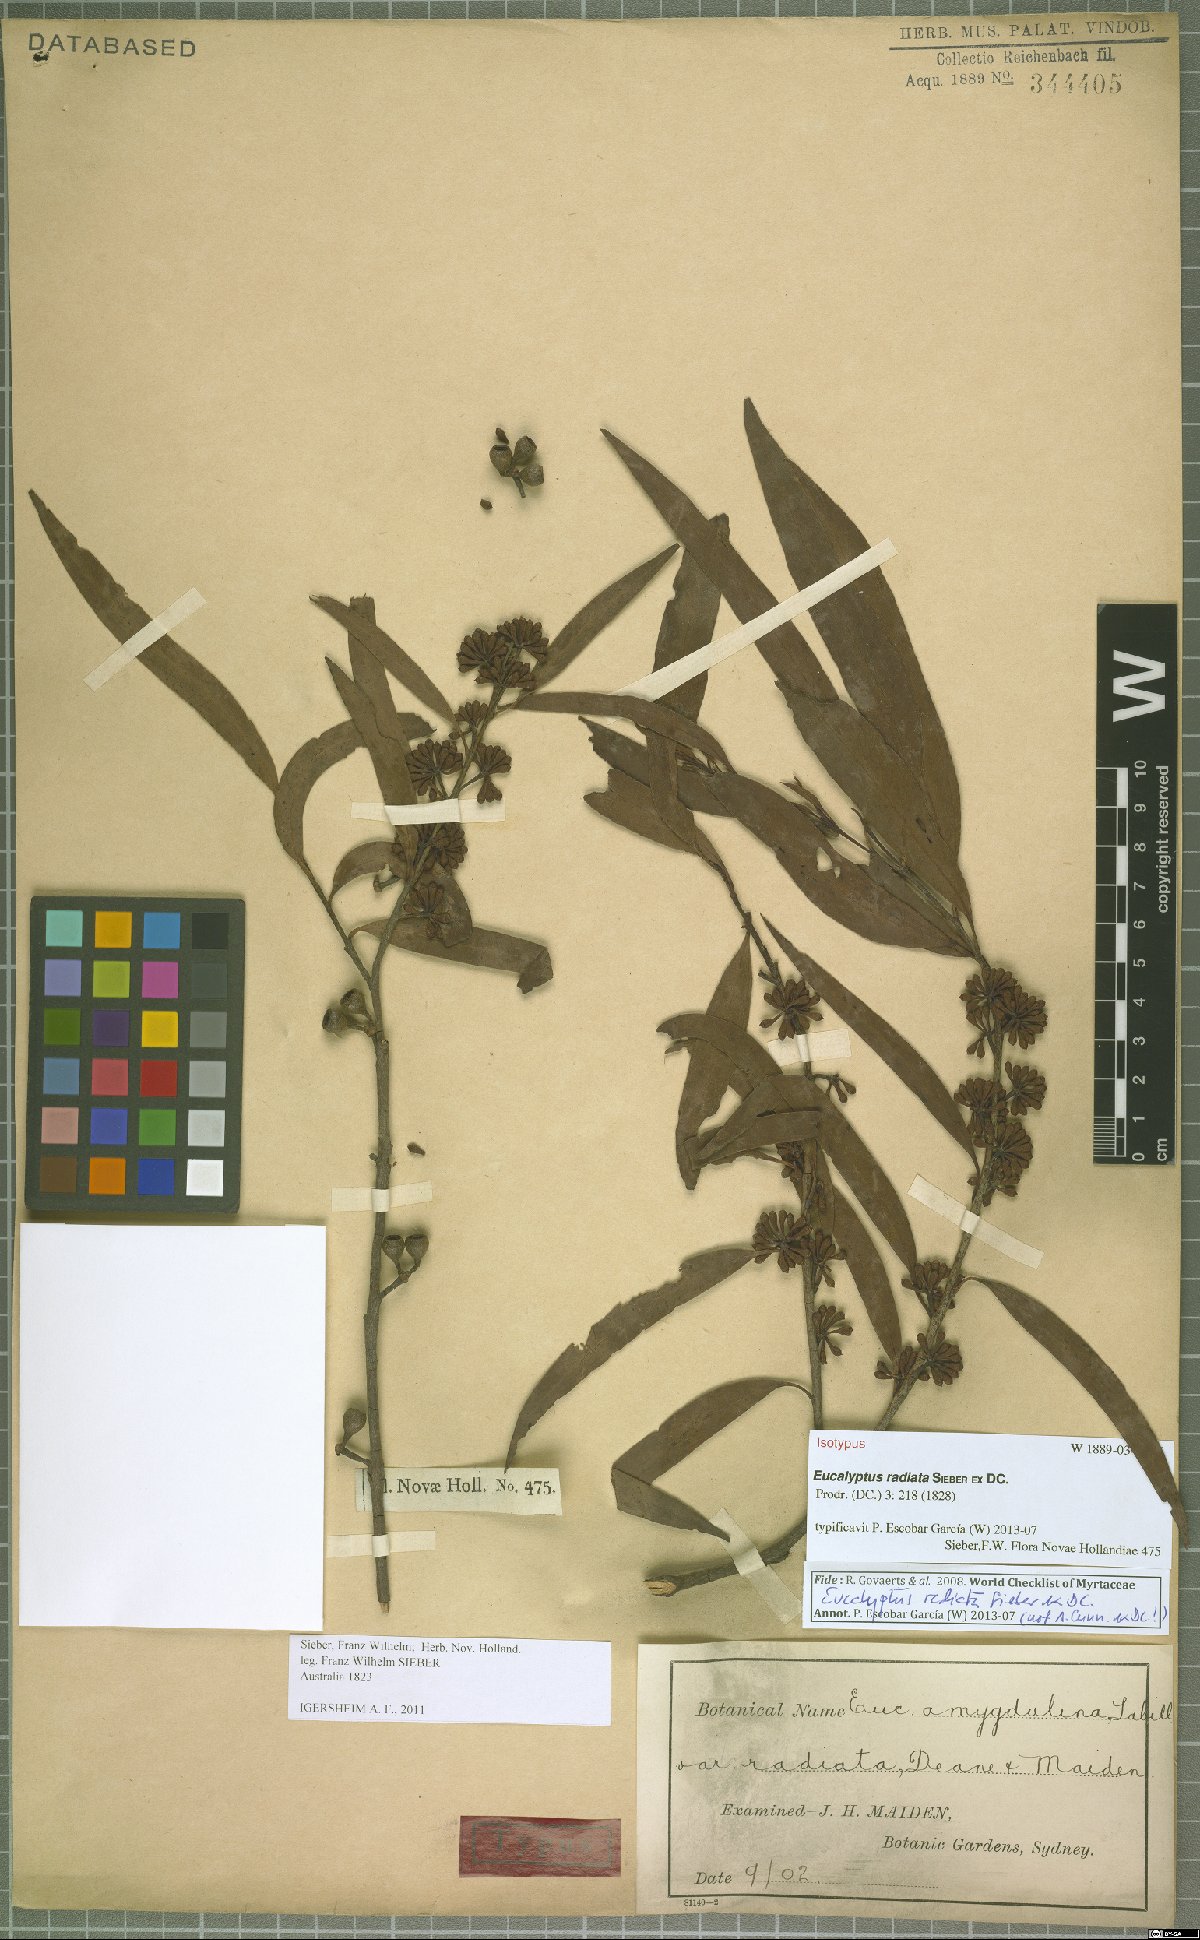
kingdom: Plantae
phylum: Tracheophyta
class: Magnoliopsida
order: Myrtales
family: Myrtaceae
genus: Eucalyptus
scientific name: Eucalyptus radiata
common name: Narrow-leaved-peppermint
